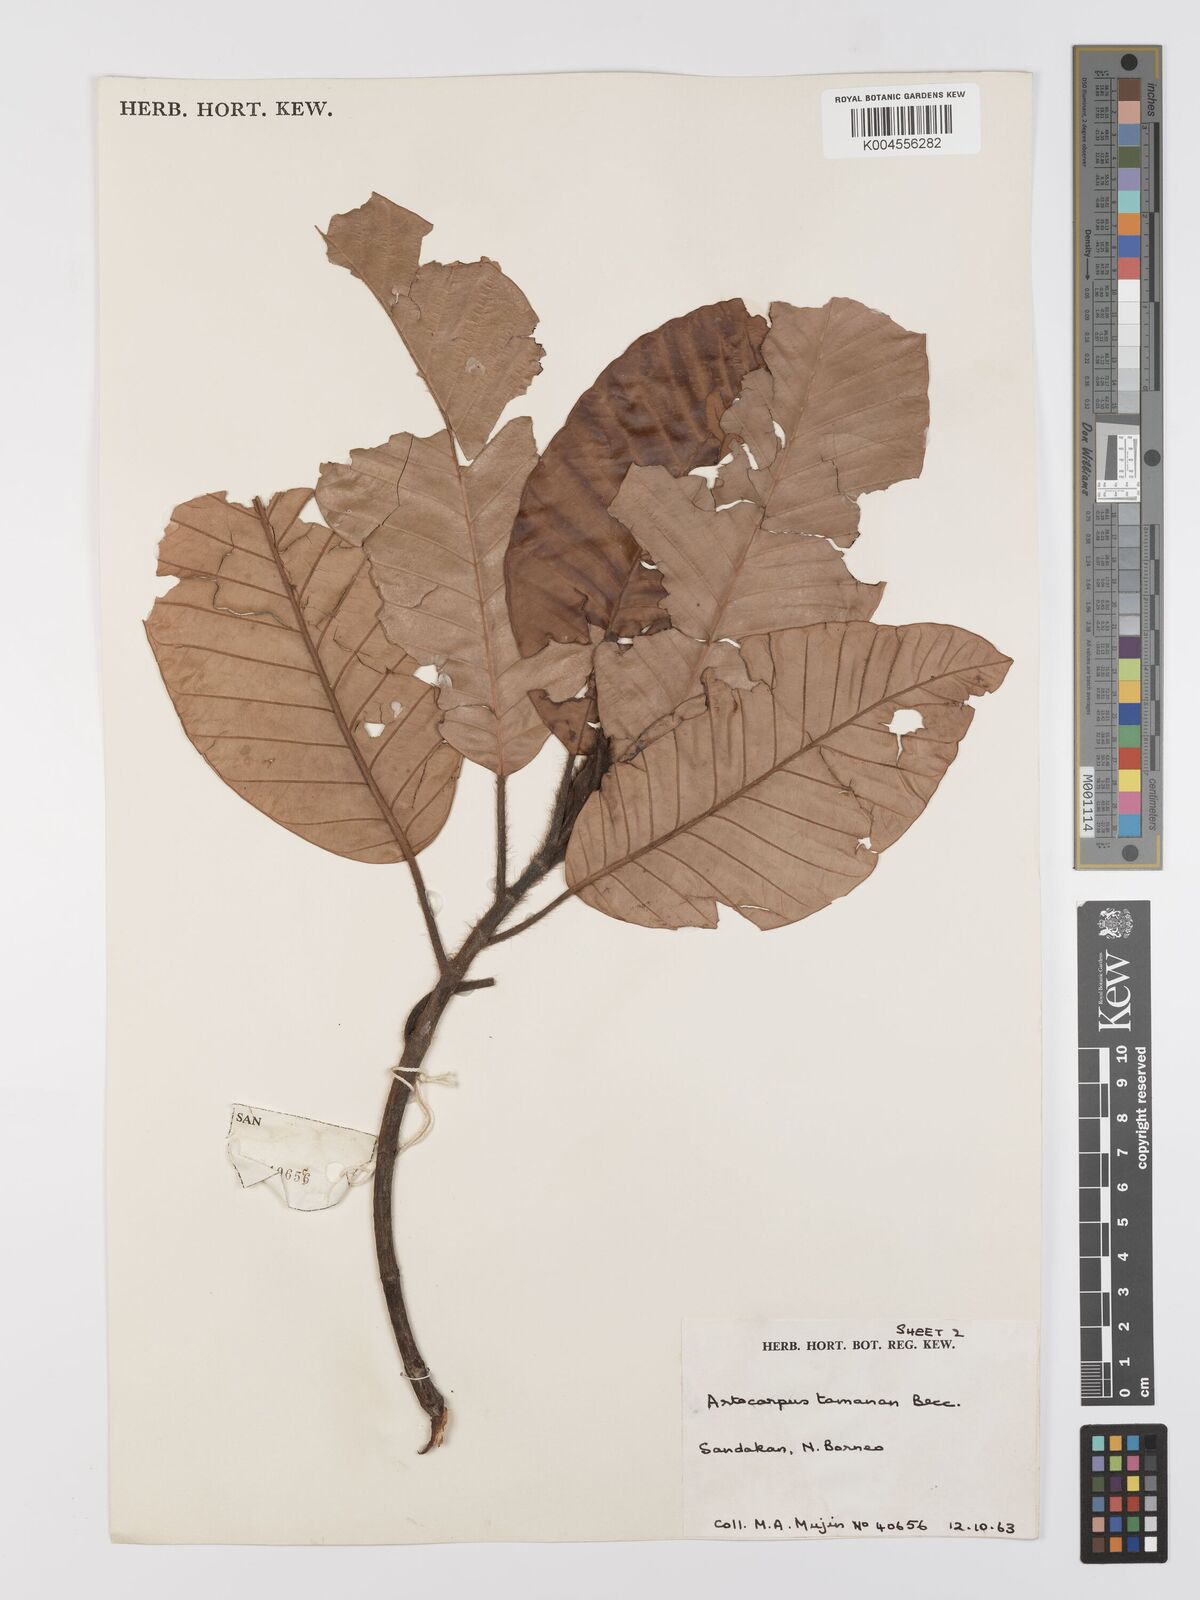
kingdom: Plantae
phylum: Tracheophyta
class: Magnoliopsida
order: Rosales
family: Moraceae
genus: Artocarpus
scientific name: Artocarpus tamaran
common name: Elephant jack
